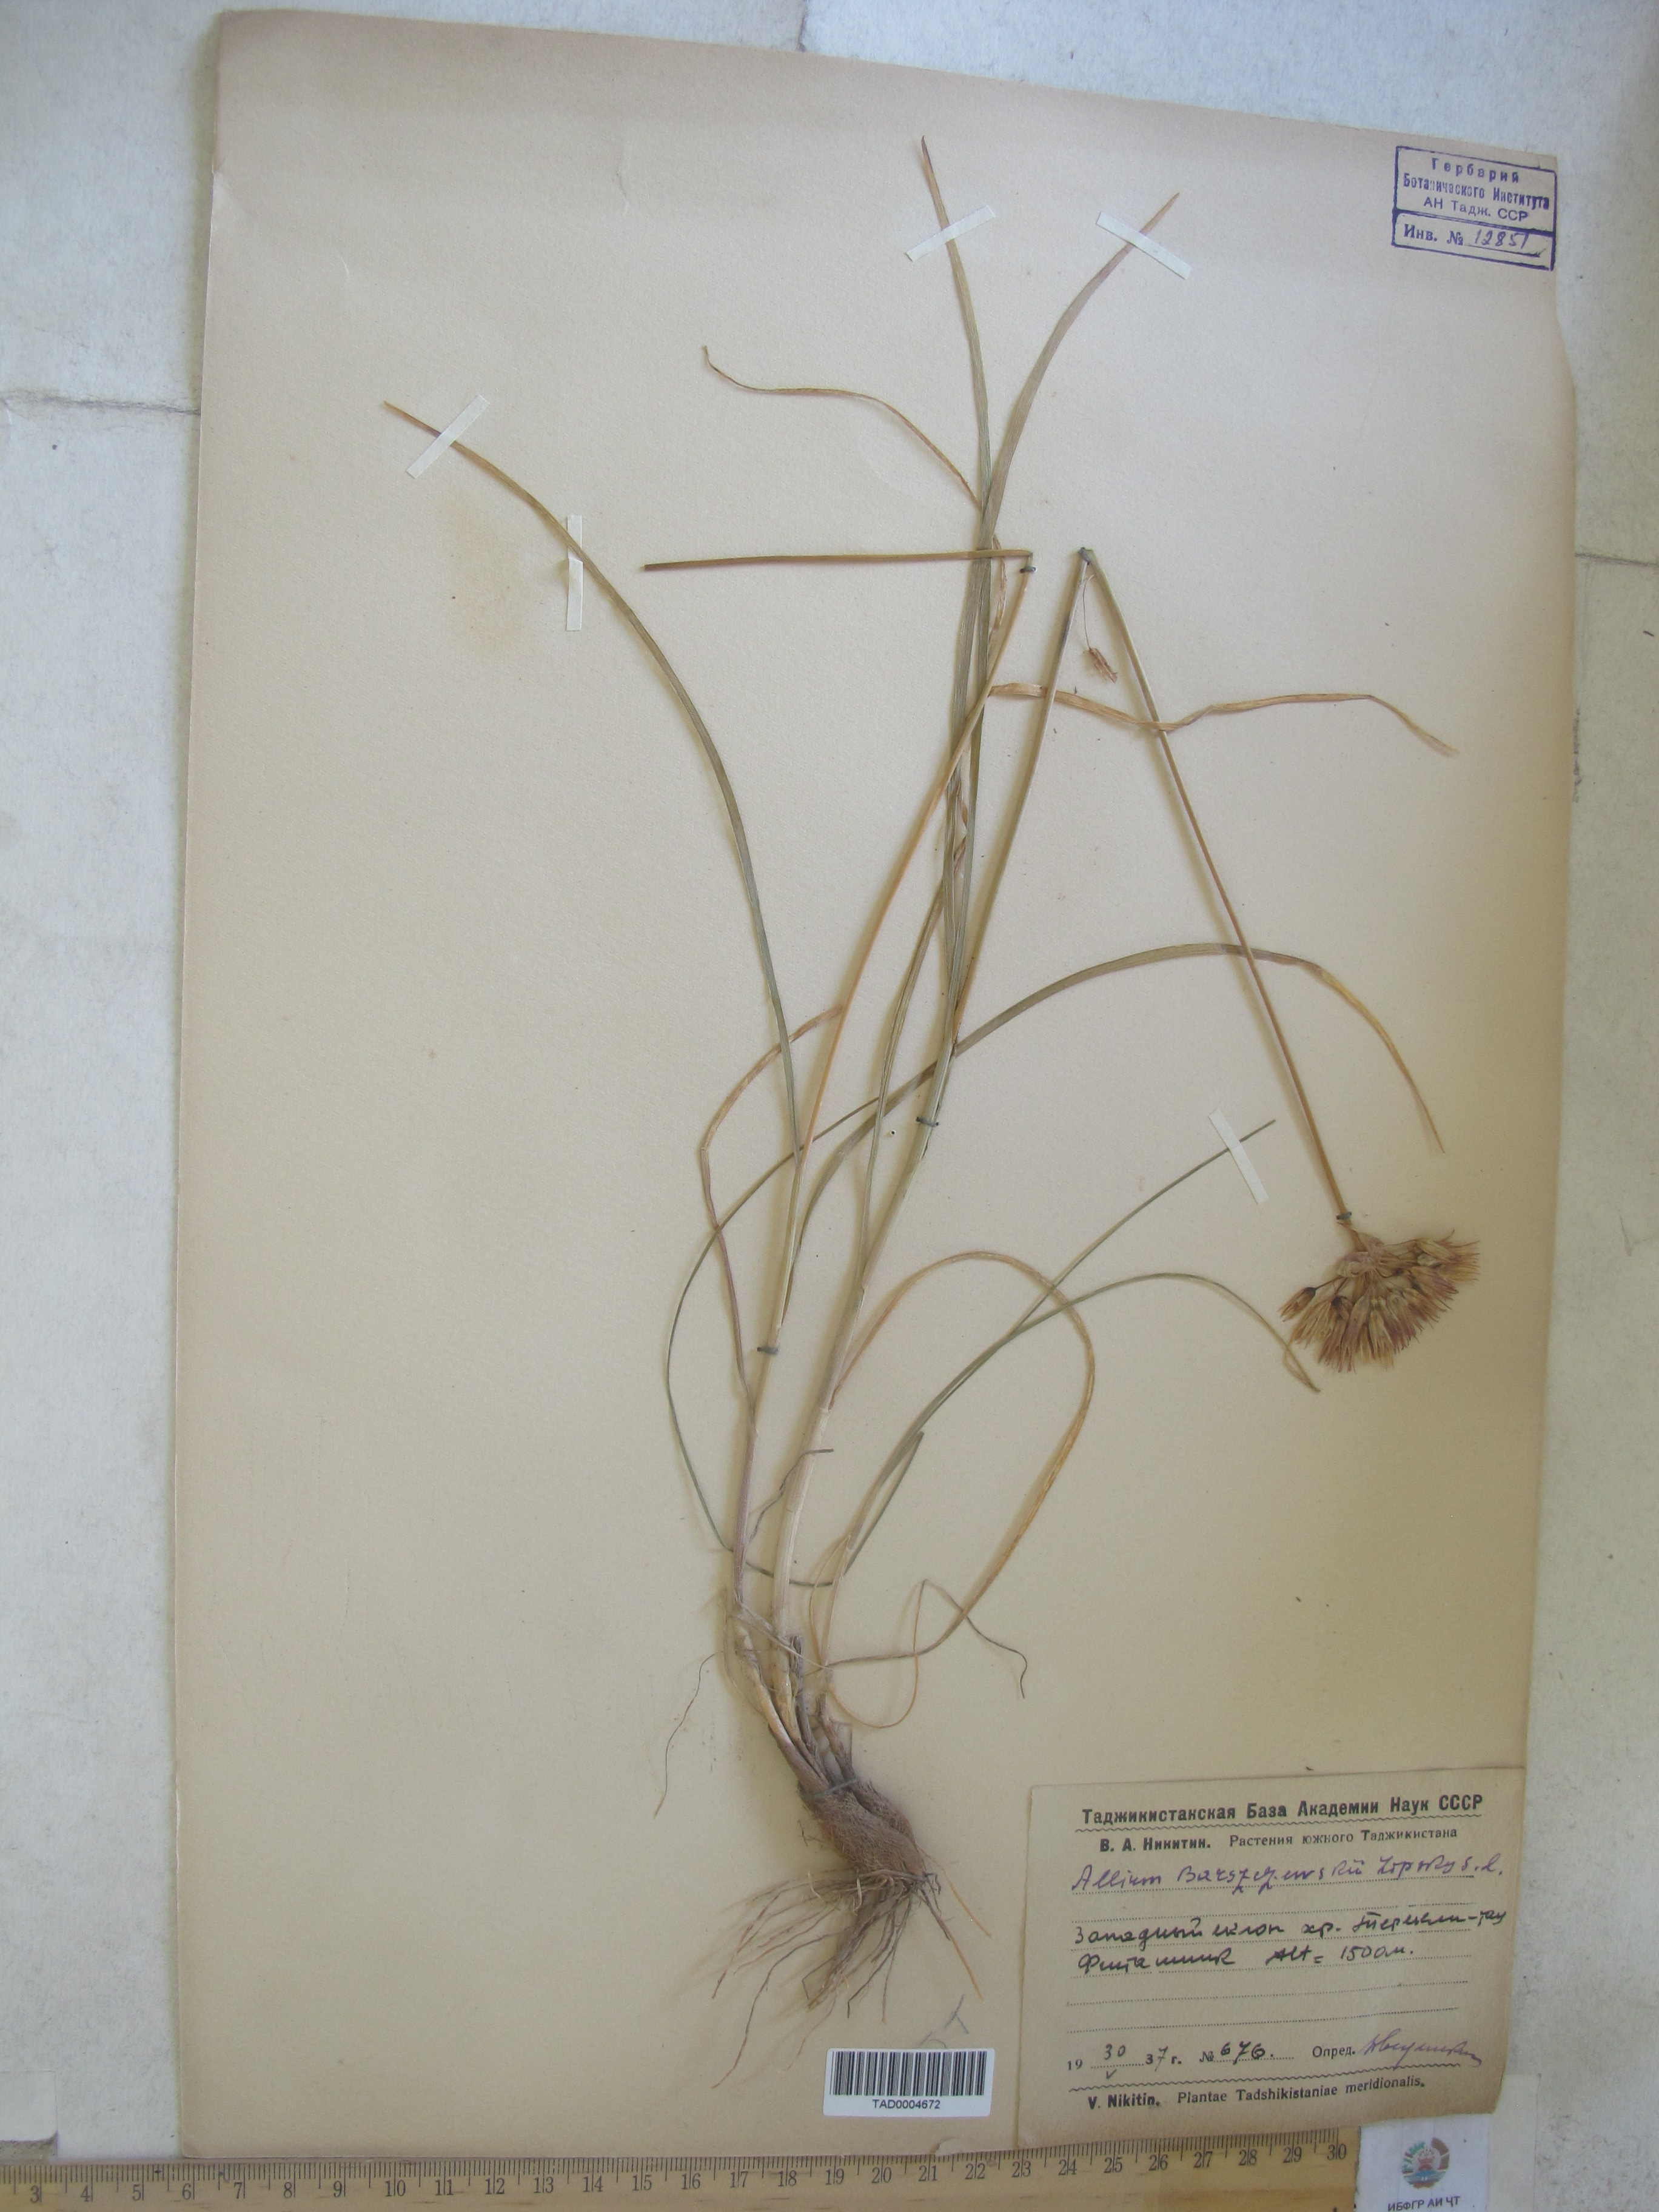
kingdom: Plantae
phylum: Tracheophyta
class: Liliopsida
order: Asparagales
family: Amaryllidaceae
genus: Allium
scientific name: Allium barsczewskii
